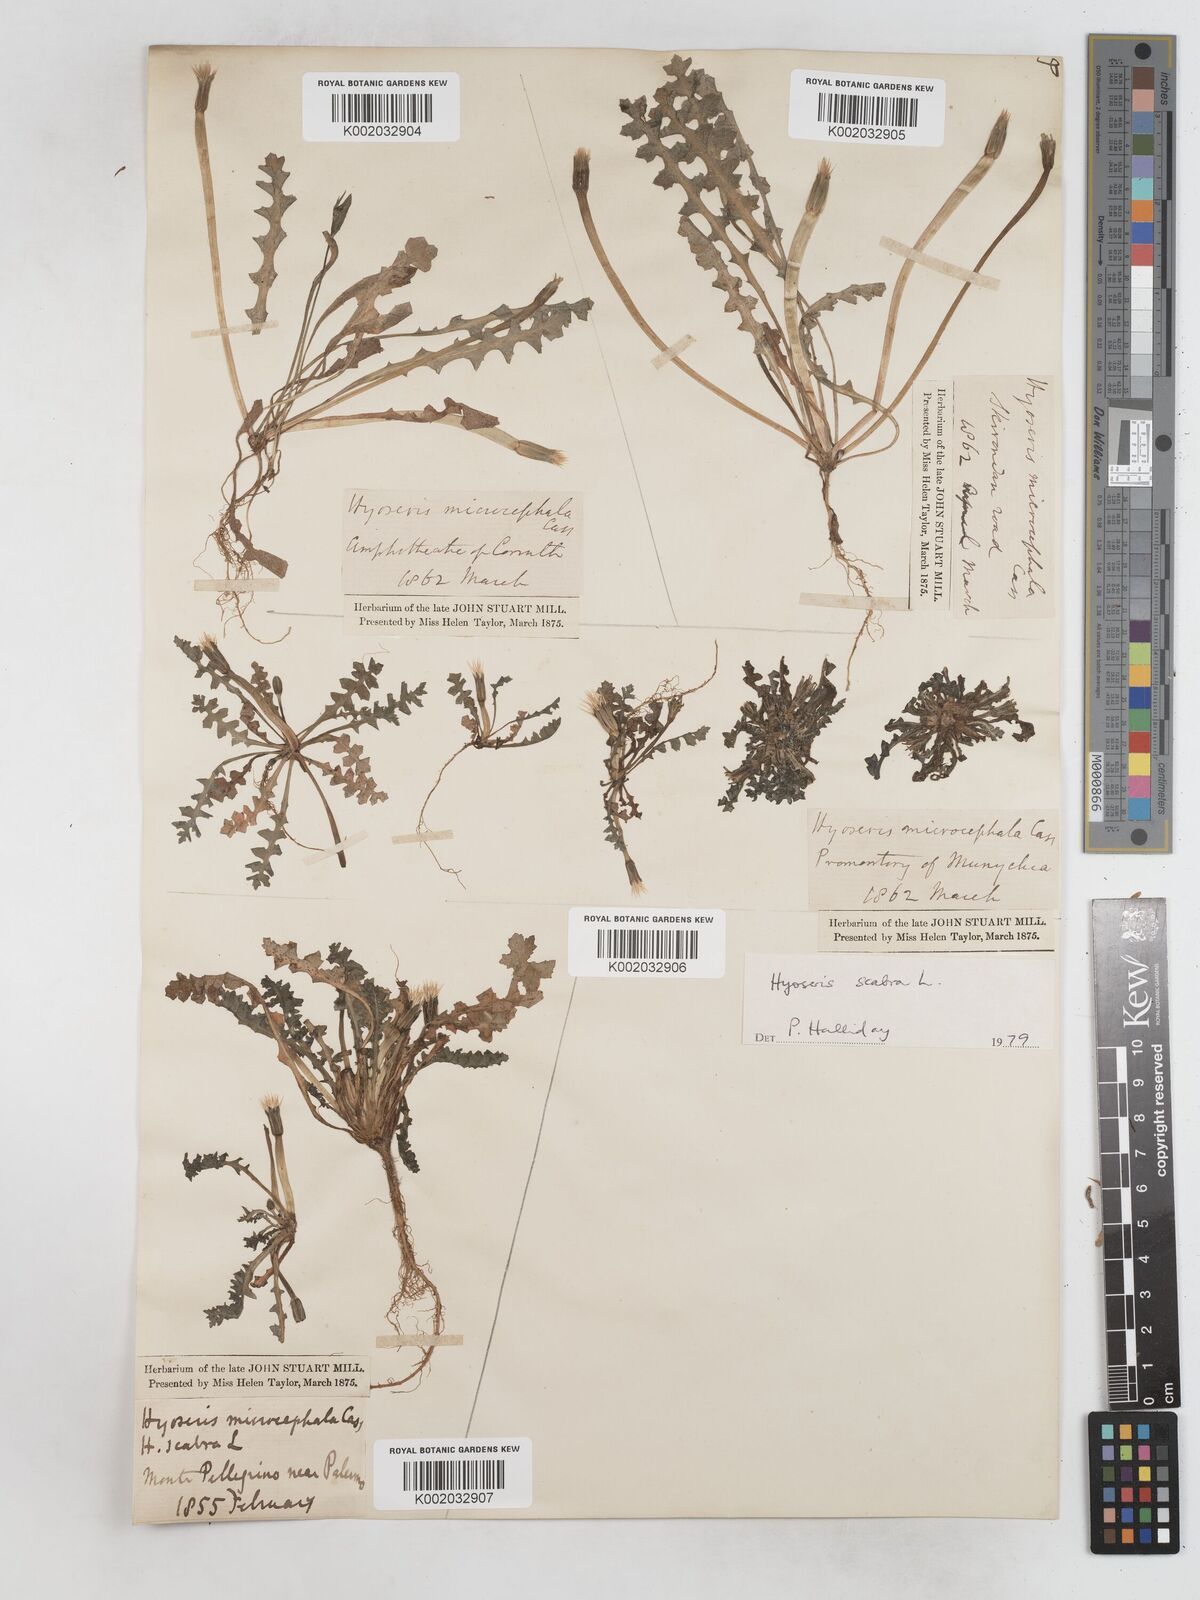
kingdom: Plantae
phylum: Tracheophyta
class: Magnoliopsida
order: Asterales
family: Asteraceae
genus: Hyoseris
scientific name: Hyoseris scabra
